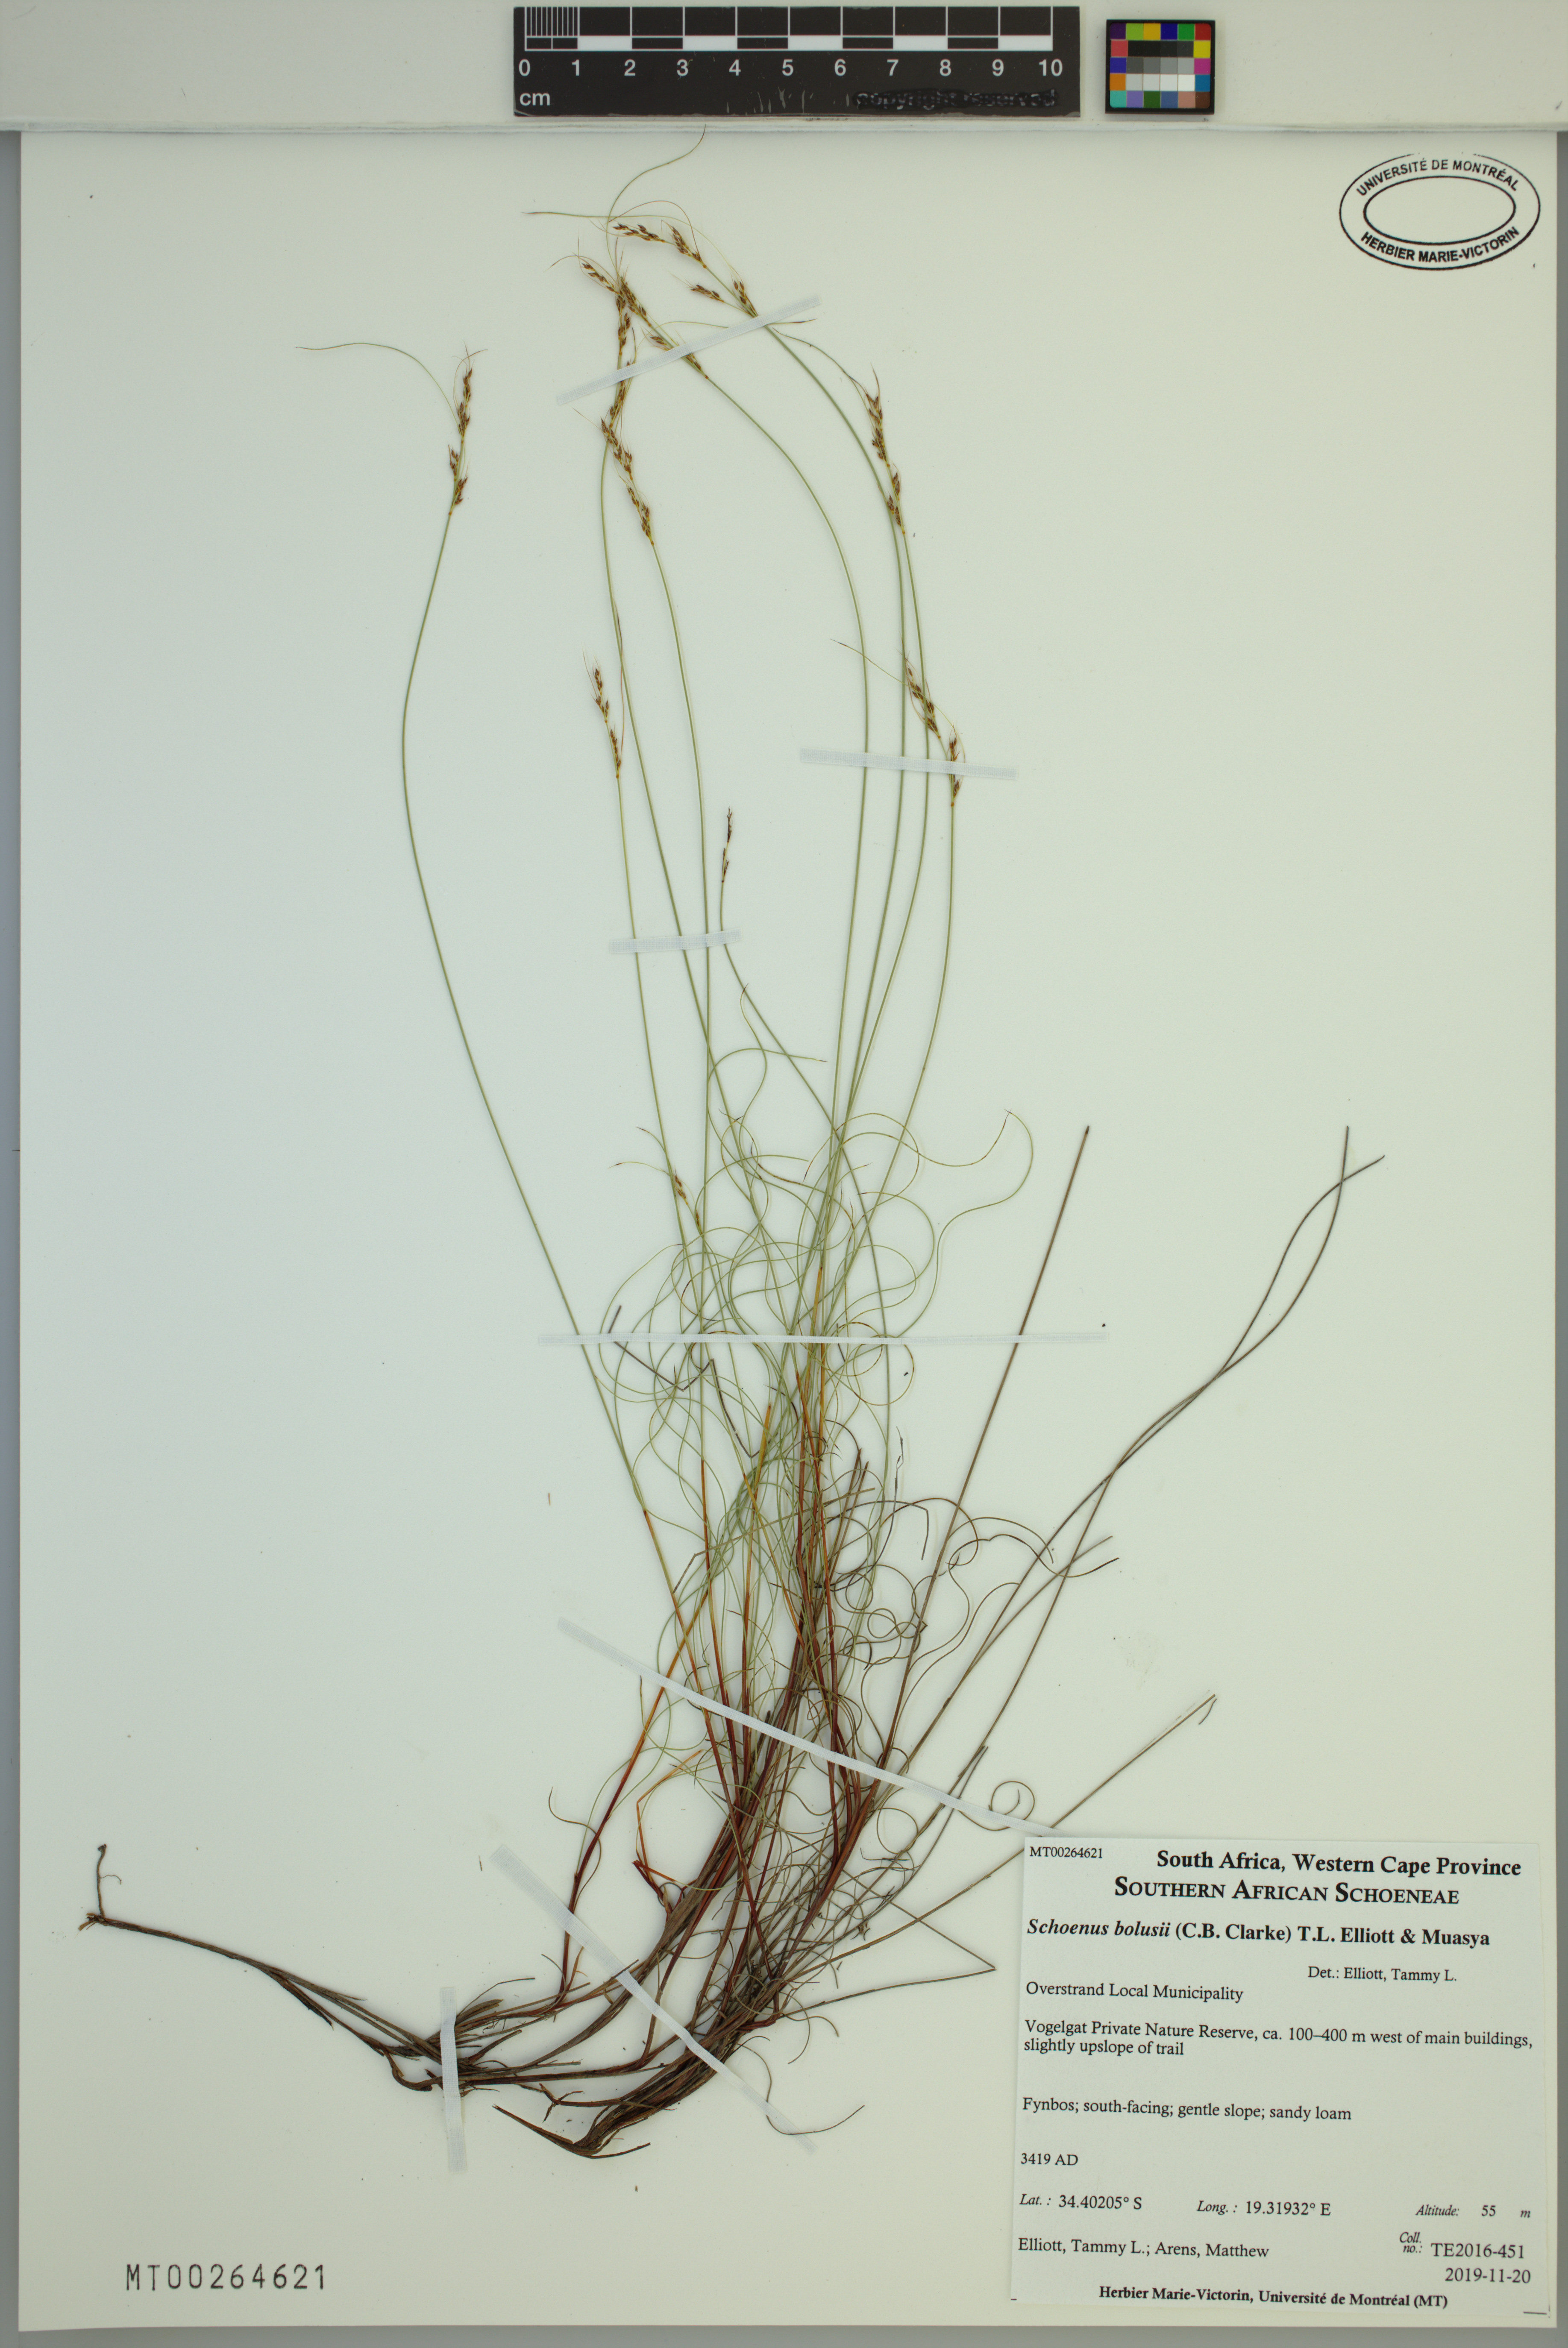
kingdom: Plantae
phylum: Tracheophyta
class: Liliopsida
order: Poales
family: Cyperaceae
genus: Schoenus
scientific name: Schoenus bolusii
